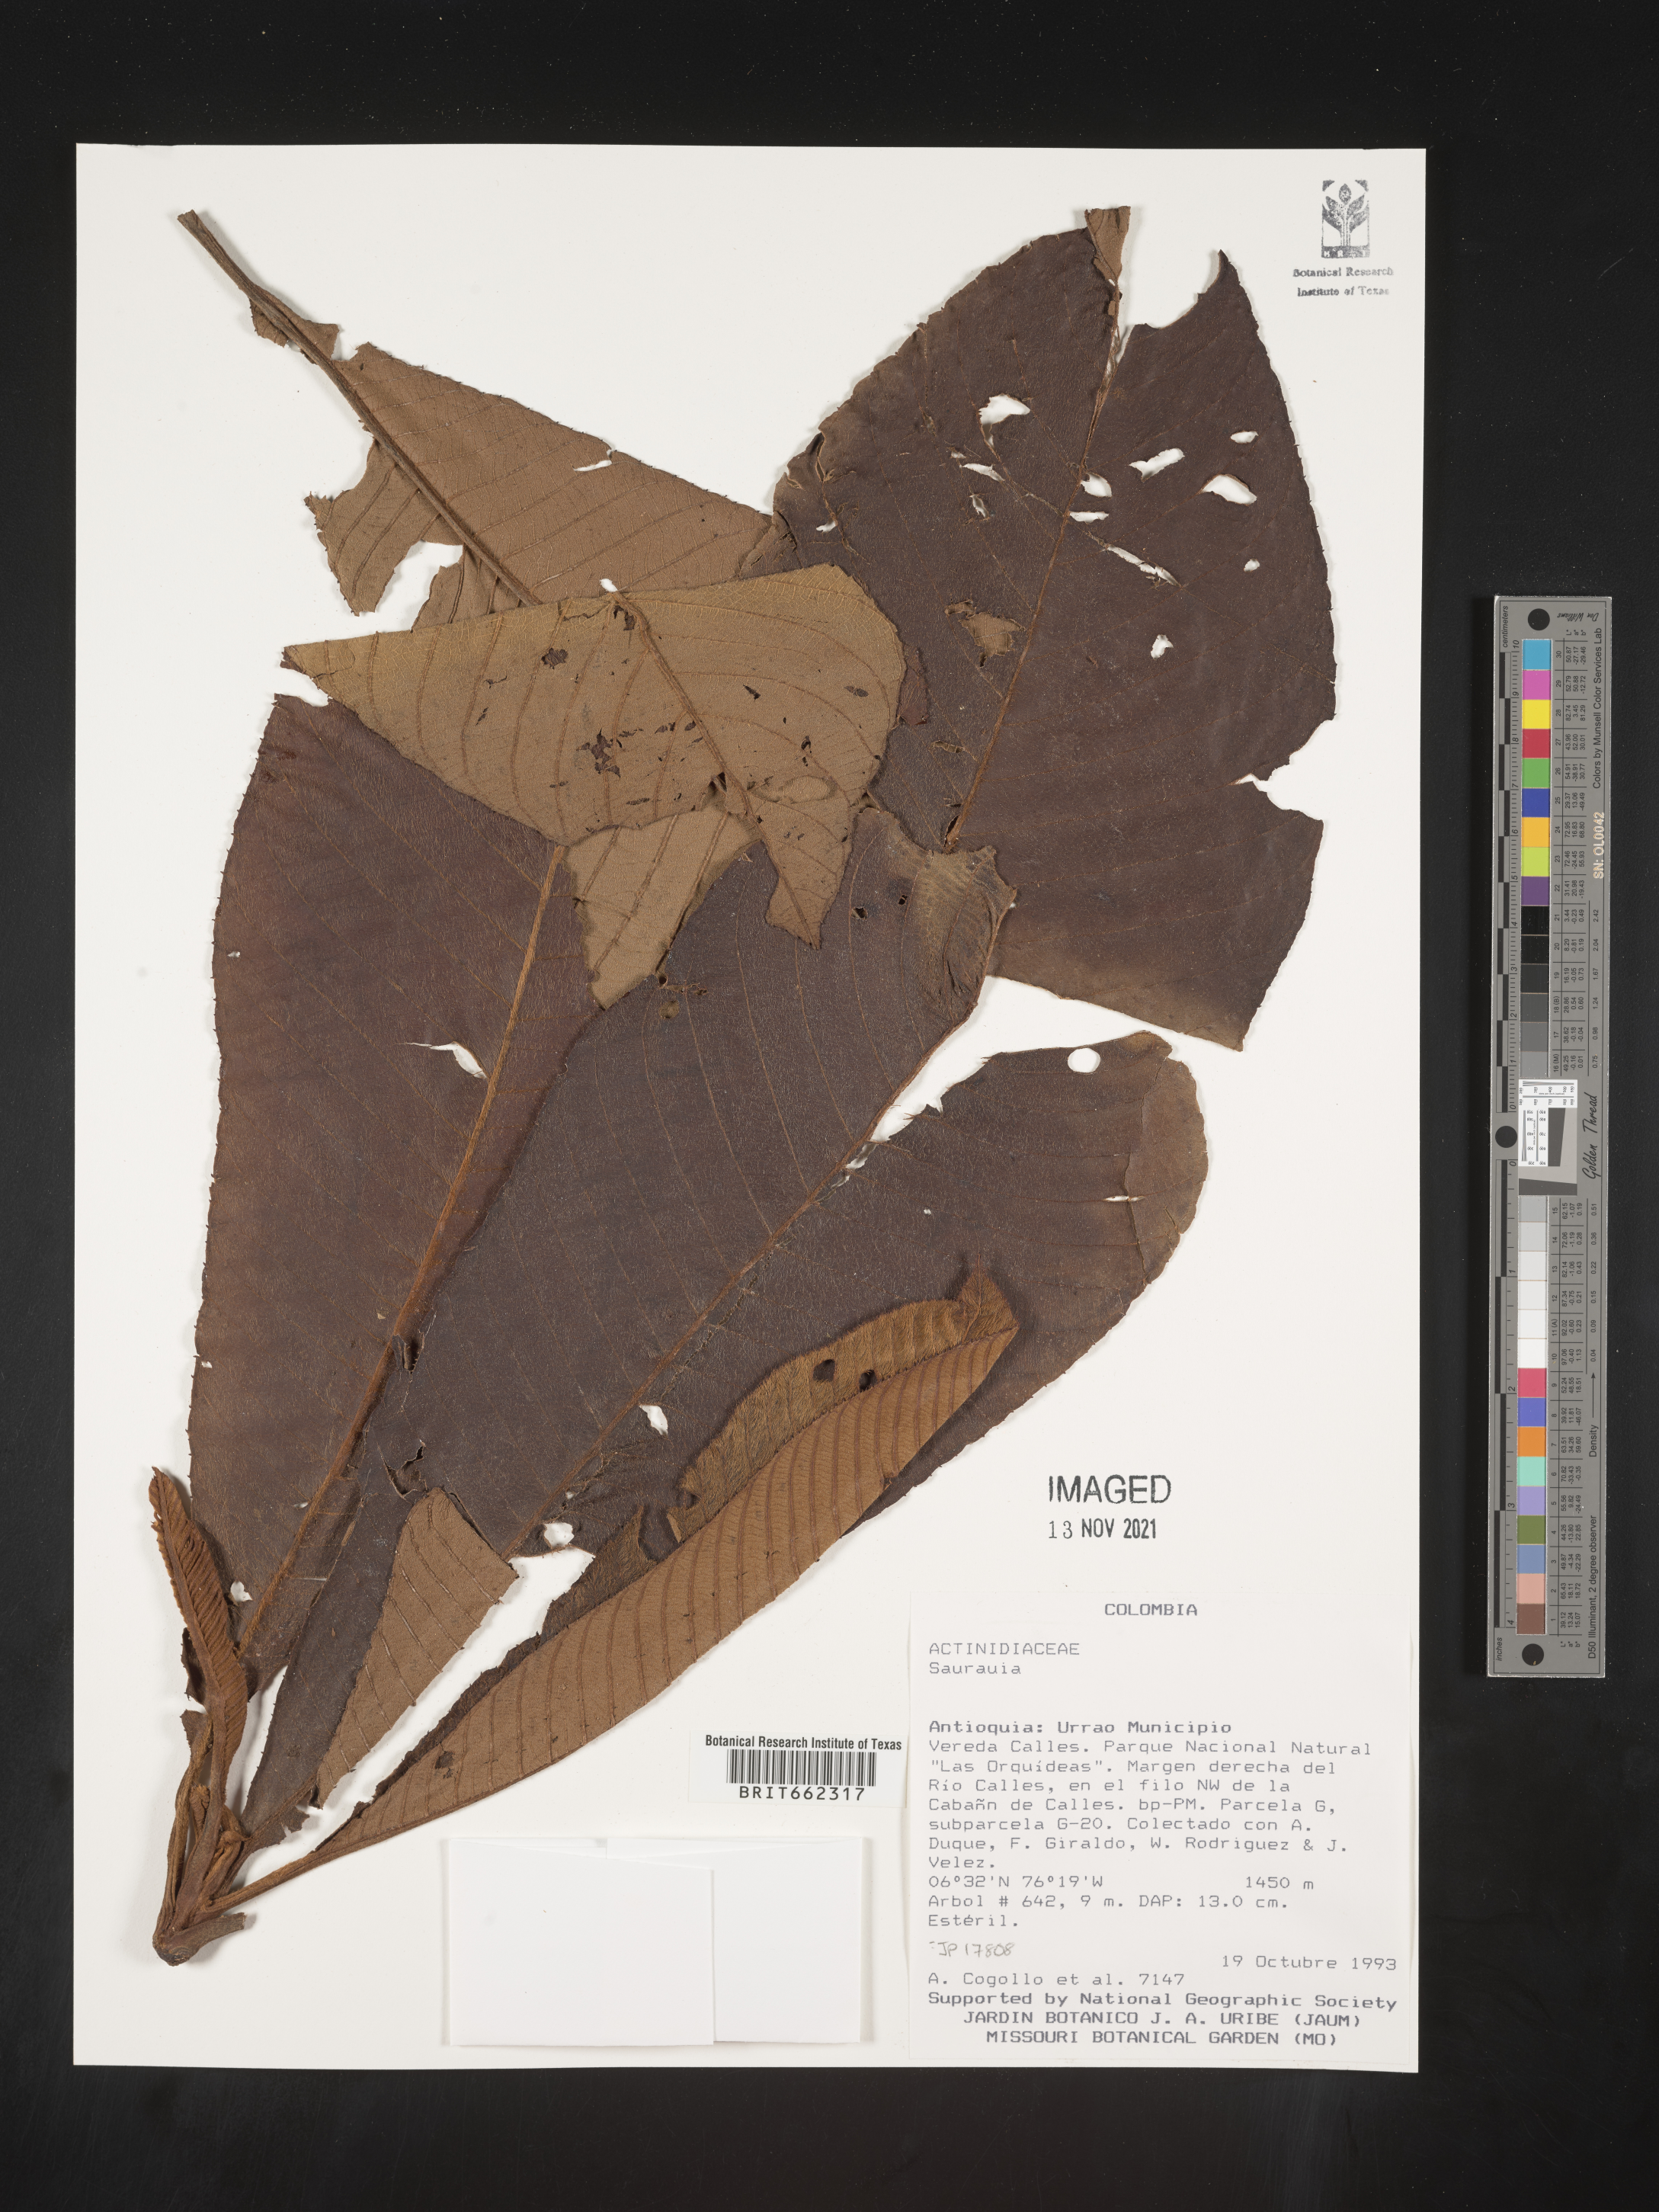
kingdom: Plantae
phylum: Tracheophyta
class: Magnoliopsida
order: Ericales
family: Actinidiaceae
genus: Saurauia
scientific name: Saurauia
